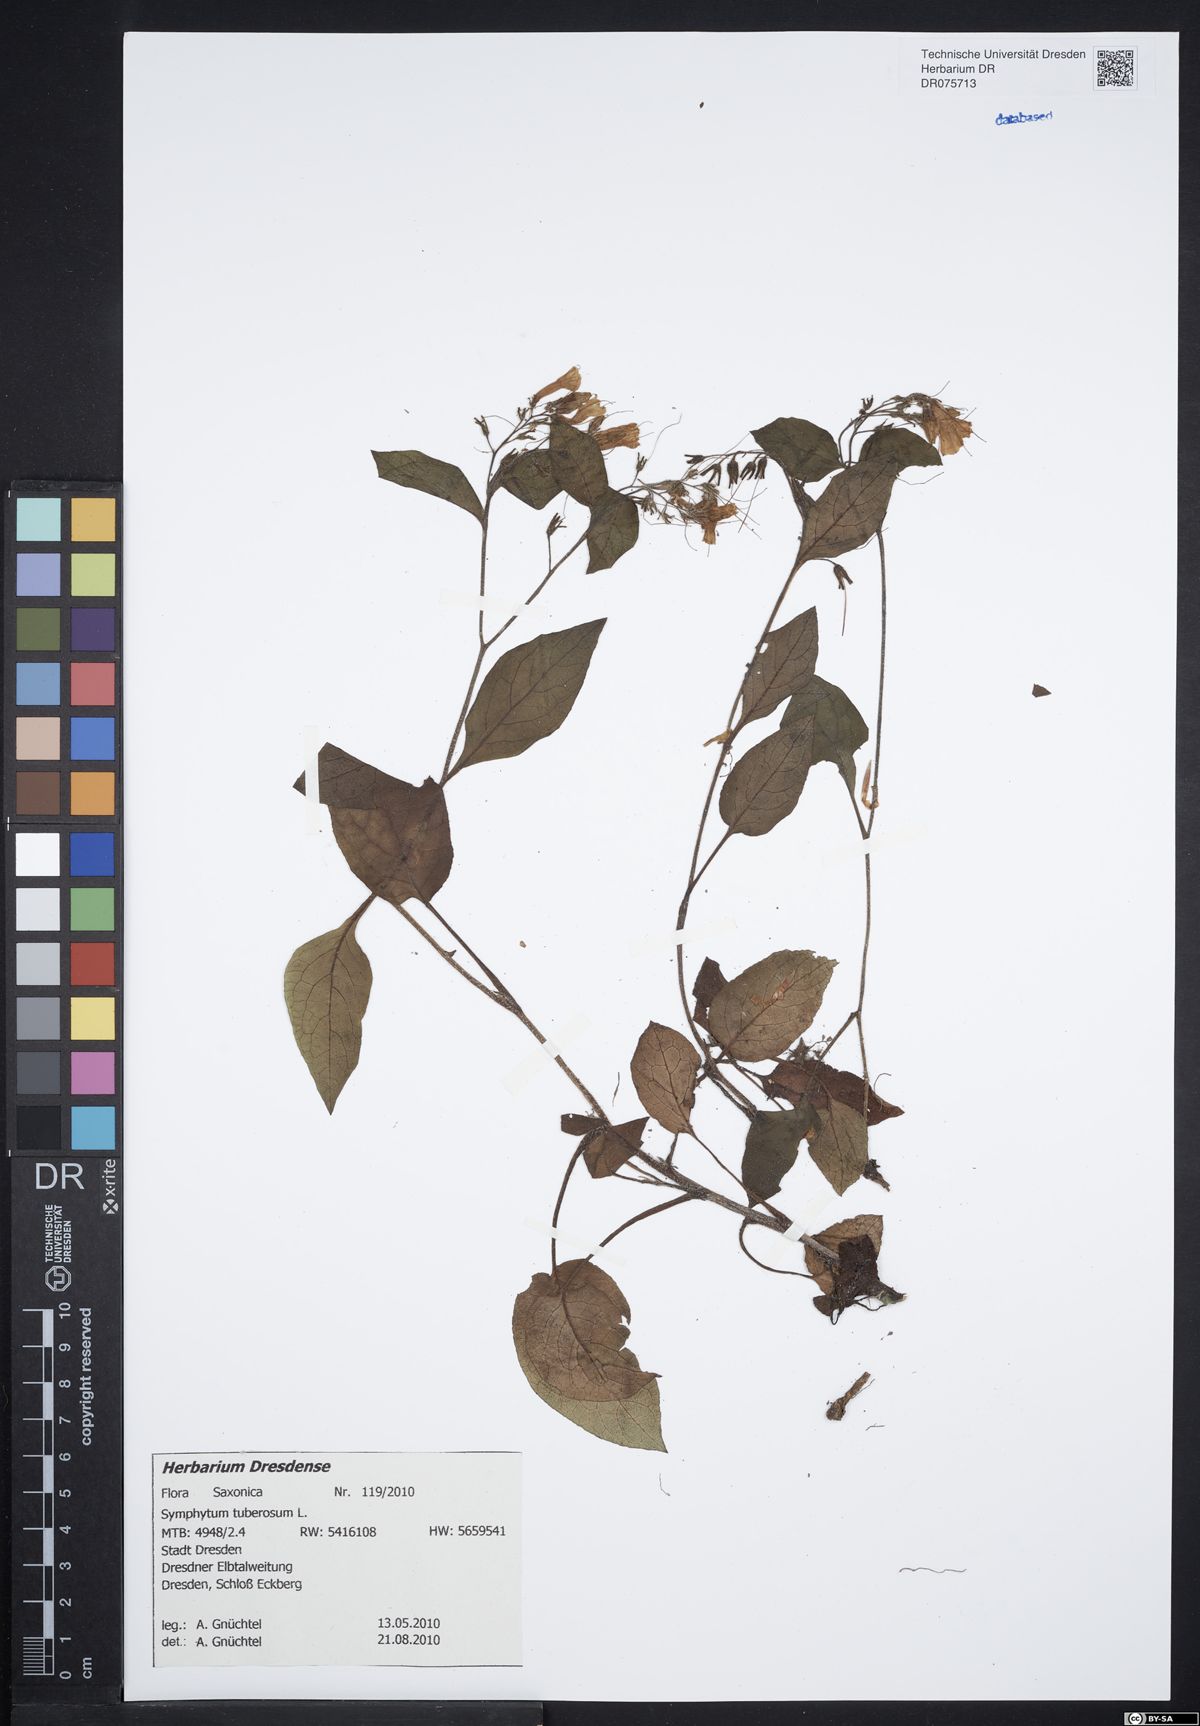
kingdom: Plantae
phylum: Tracheophyta
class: Magnoliopsida
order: Boraginales
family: Boraginaceae
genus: Symphytum
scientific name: Symphytum tuberosum
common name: Tuberous comfrey
